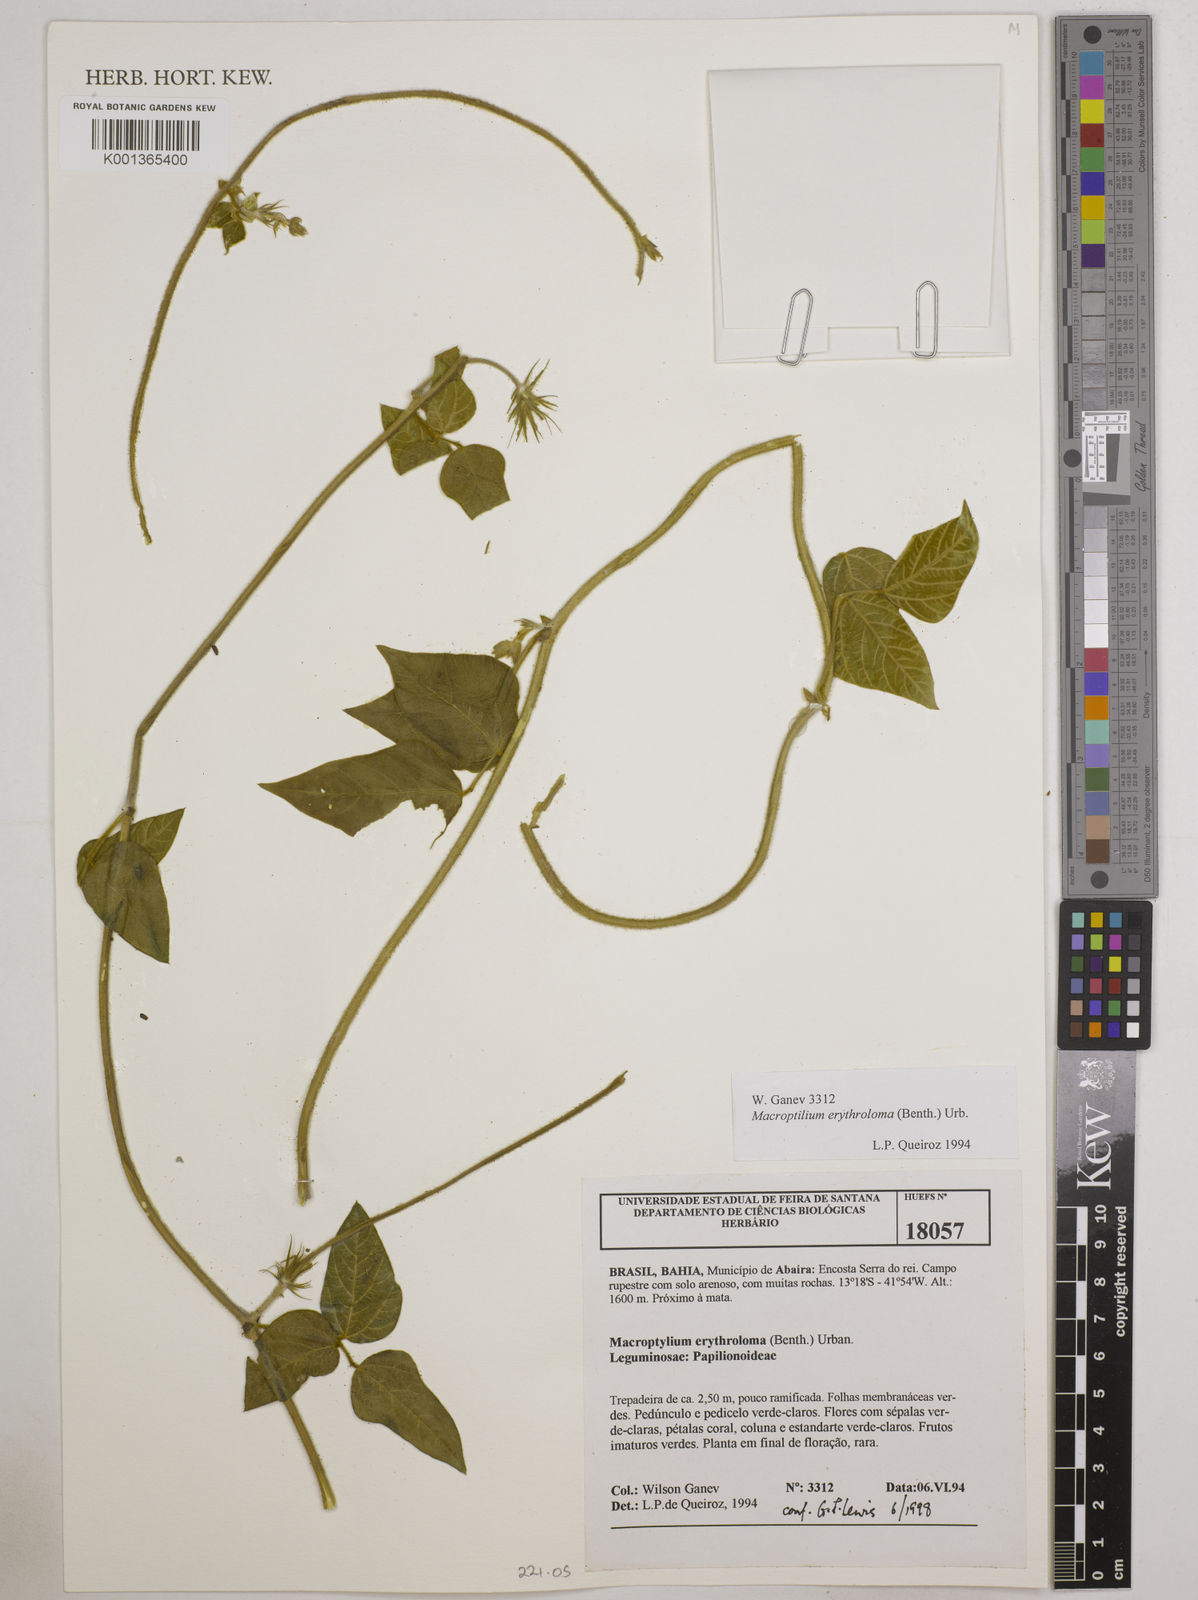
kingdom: Plantae
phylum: Tracheophyta
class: Magnoliopsida
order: Fabales
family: Fabaceae
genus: Macroptilium
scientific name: Macroptilium erythroloma
